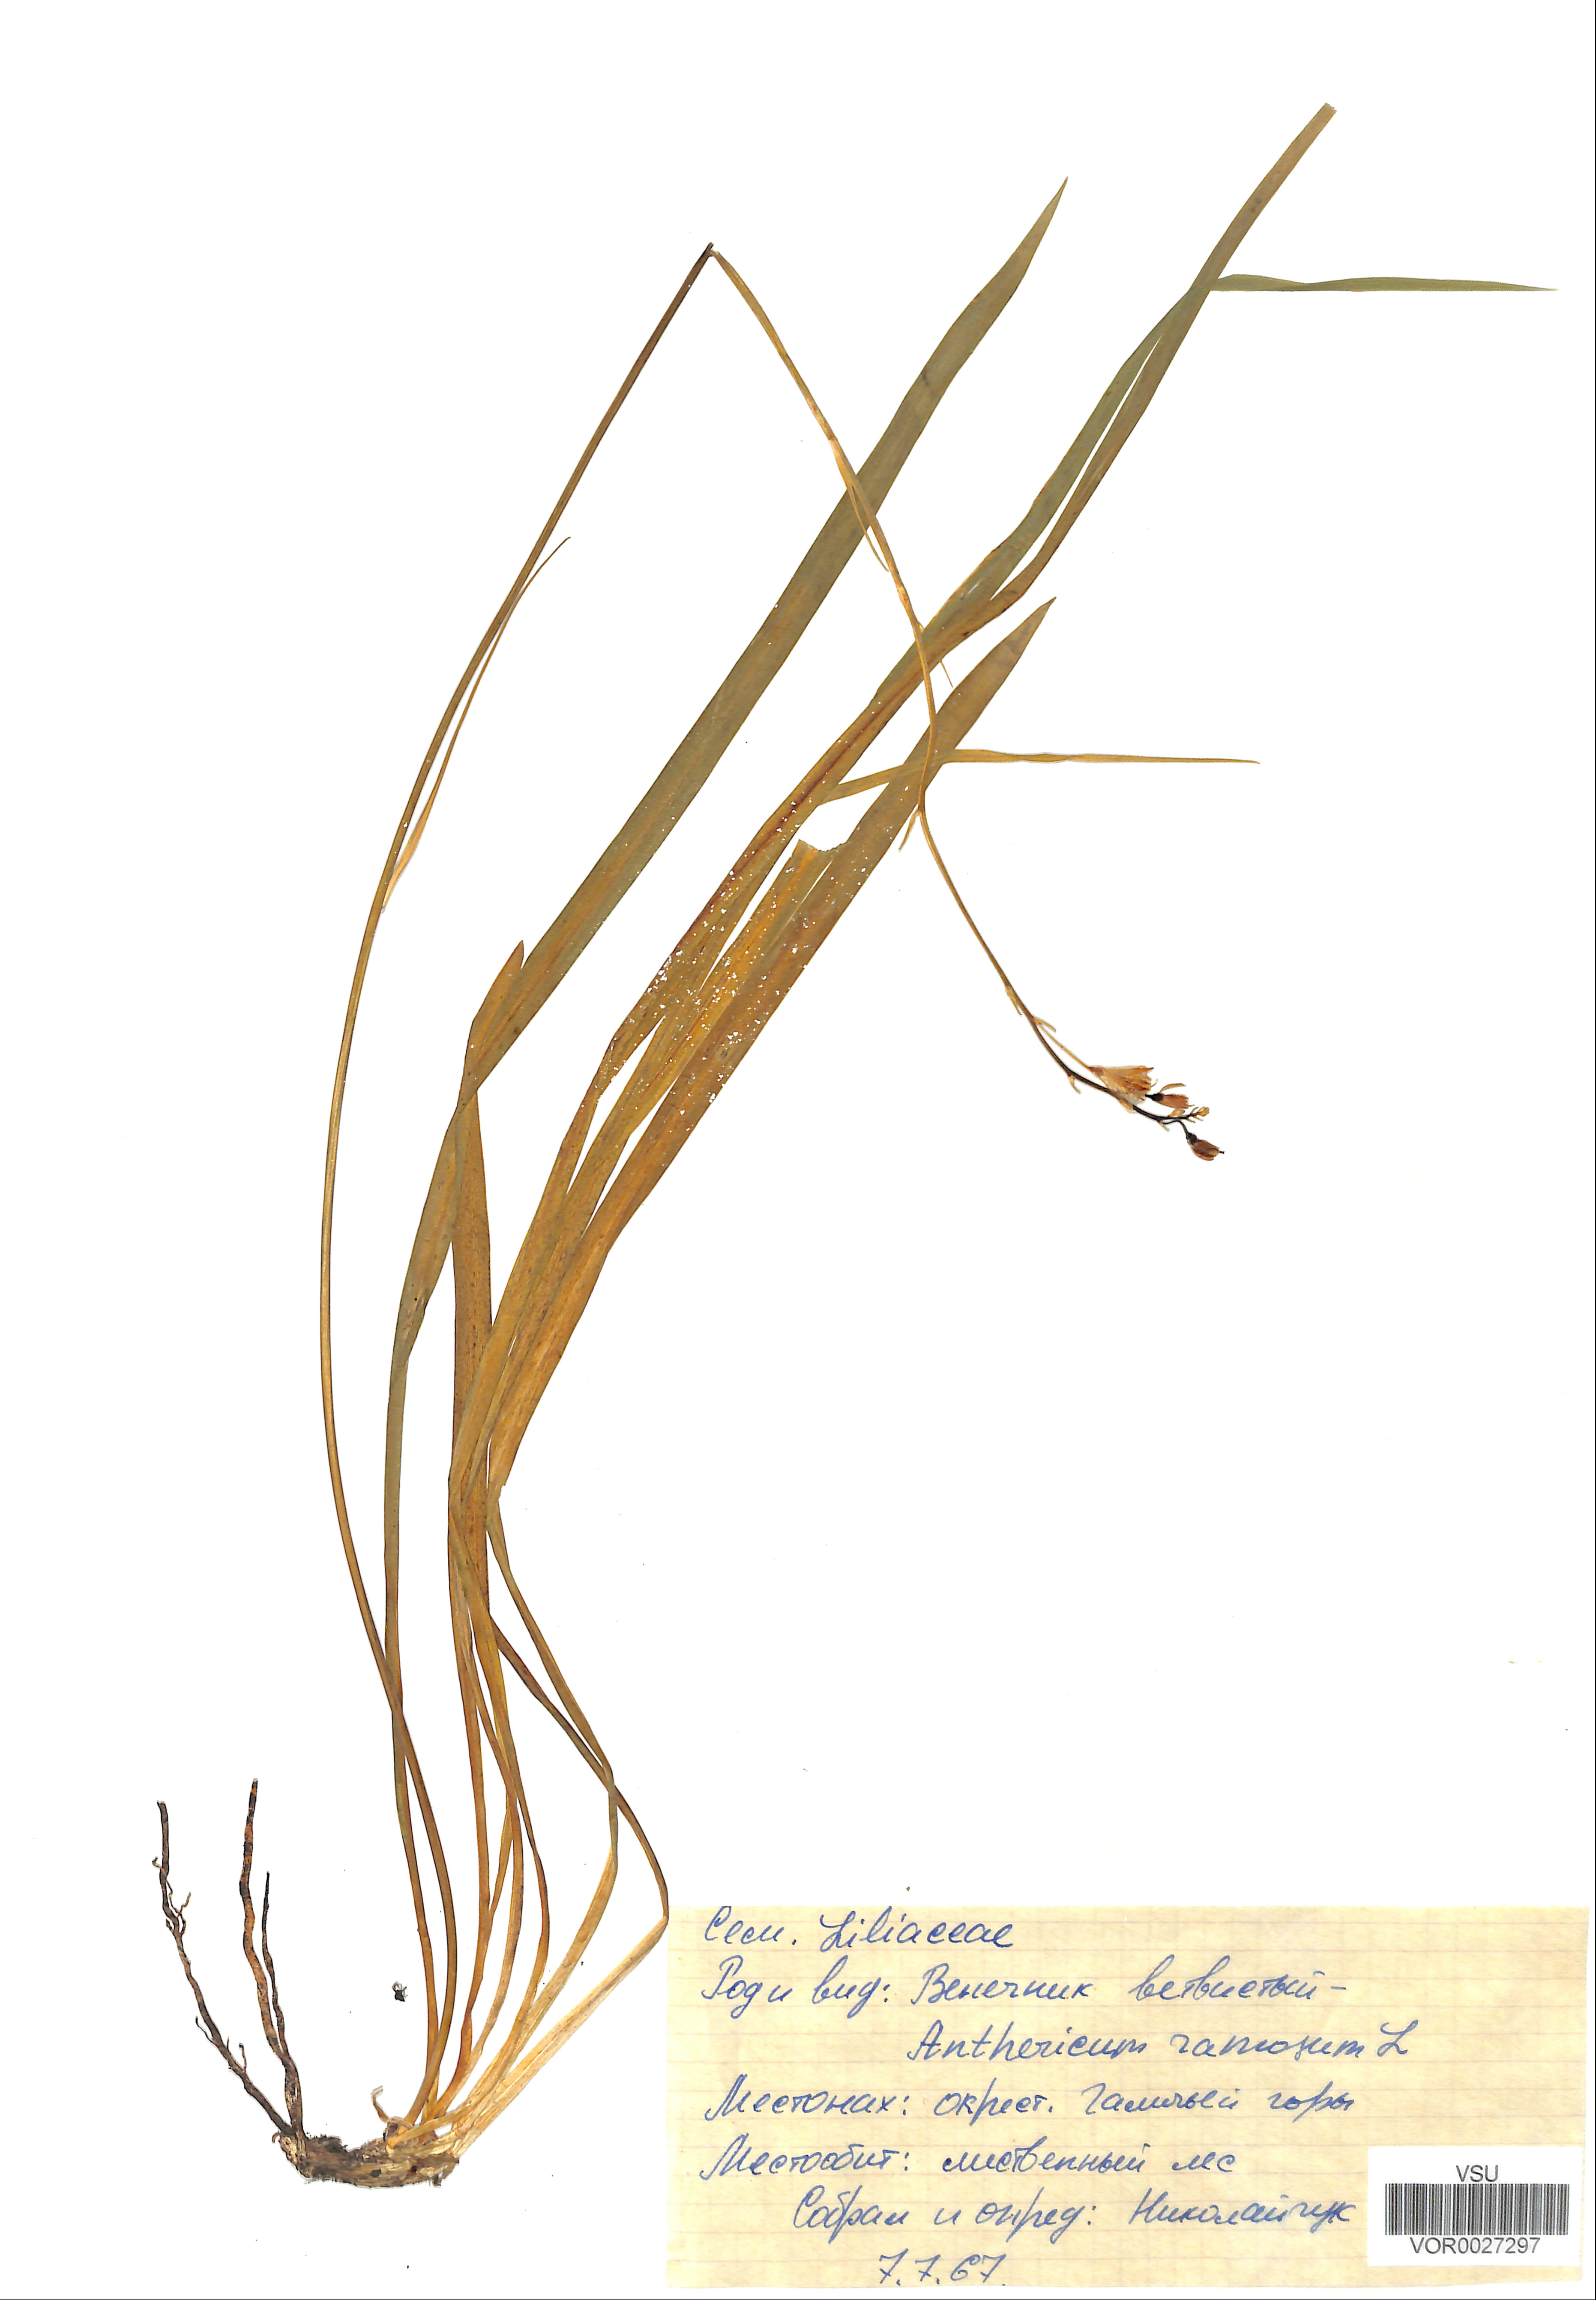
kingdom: Plantae
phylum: Tracheophyta
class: Liliopsida
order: Asparagales
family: Asparagaceae
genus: Anthericum
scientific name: Anthericum ramosum
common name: Branched st. bernard's-lily
